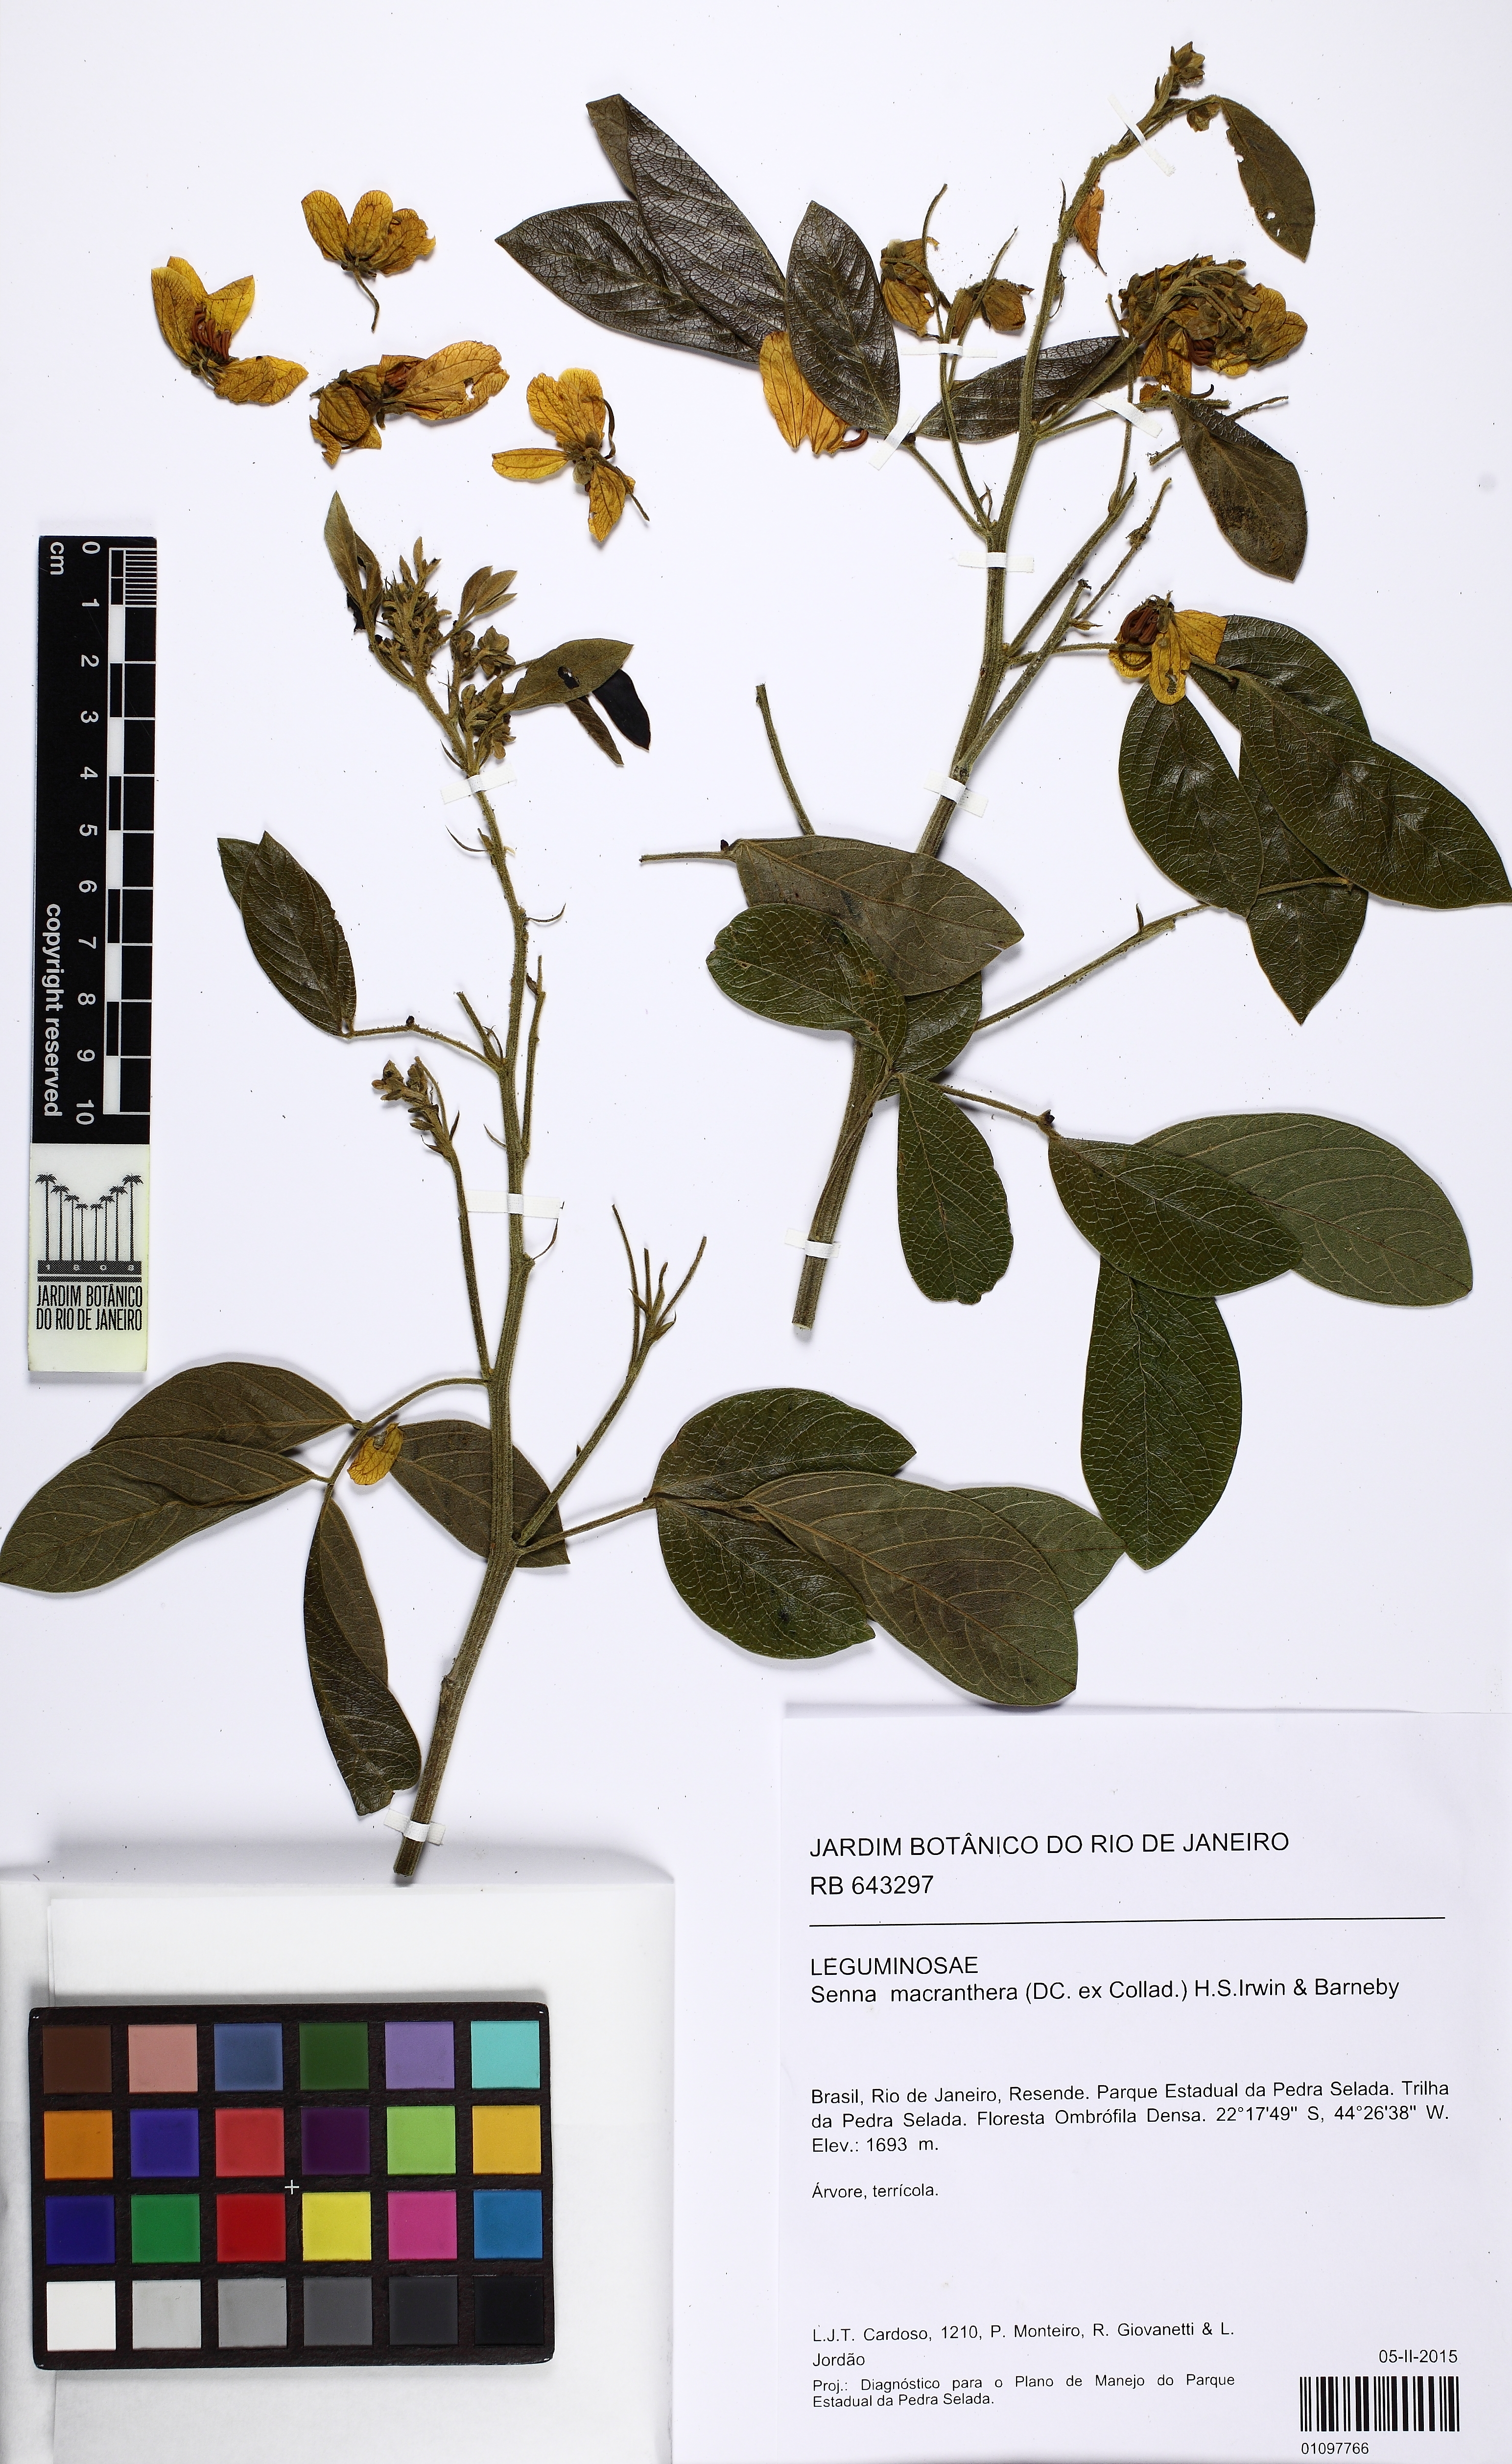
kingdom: Plantae
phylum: Tracheophyta
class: Magnoliopsida
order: Fabales
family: Fabaceae
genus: Senna
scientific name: Senna macranthera
